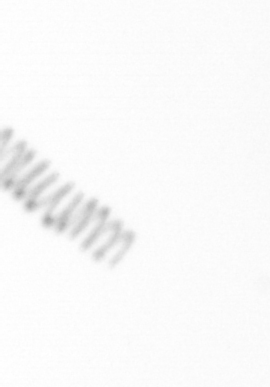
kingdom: Chromista
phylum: Ochrophyta
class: Bacillariophyceae
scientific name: Bacillariophyceae
